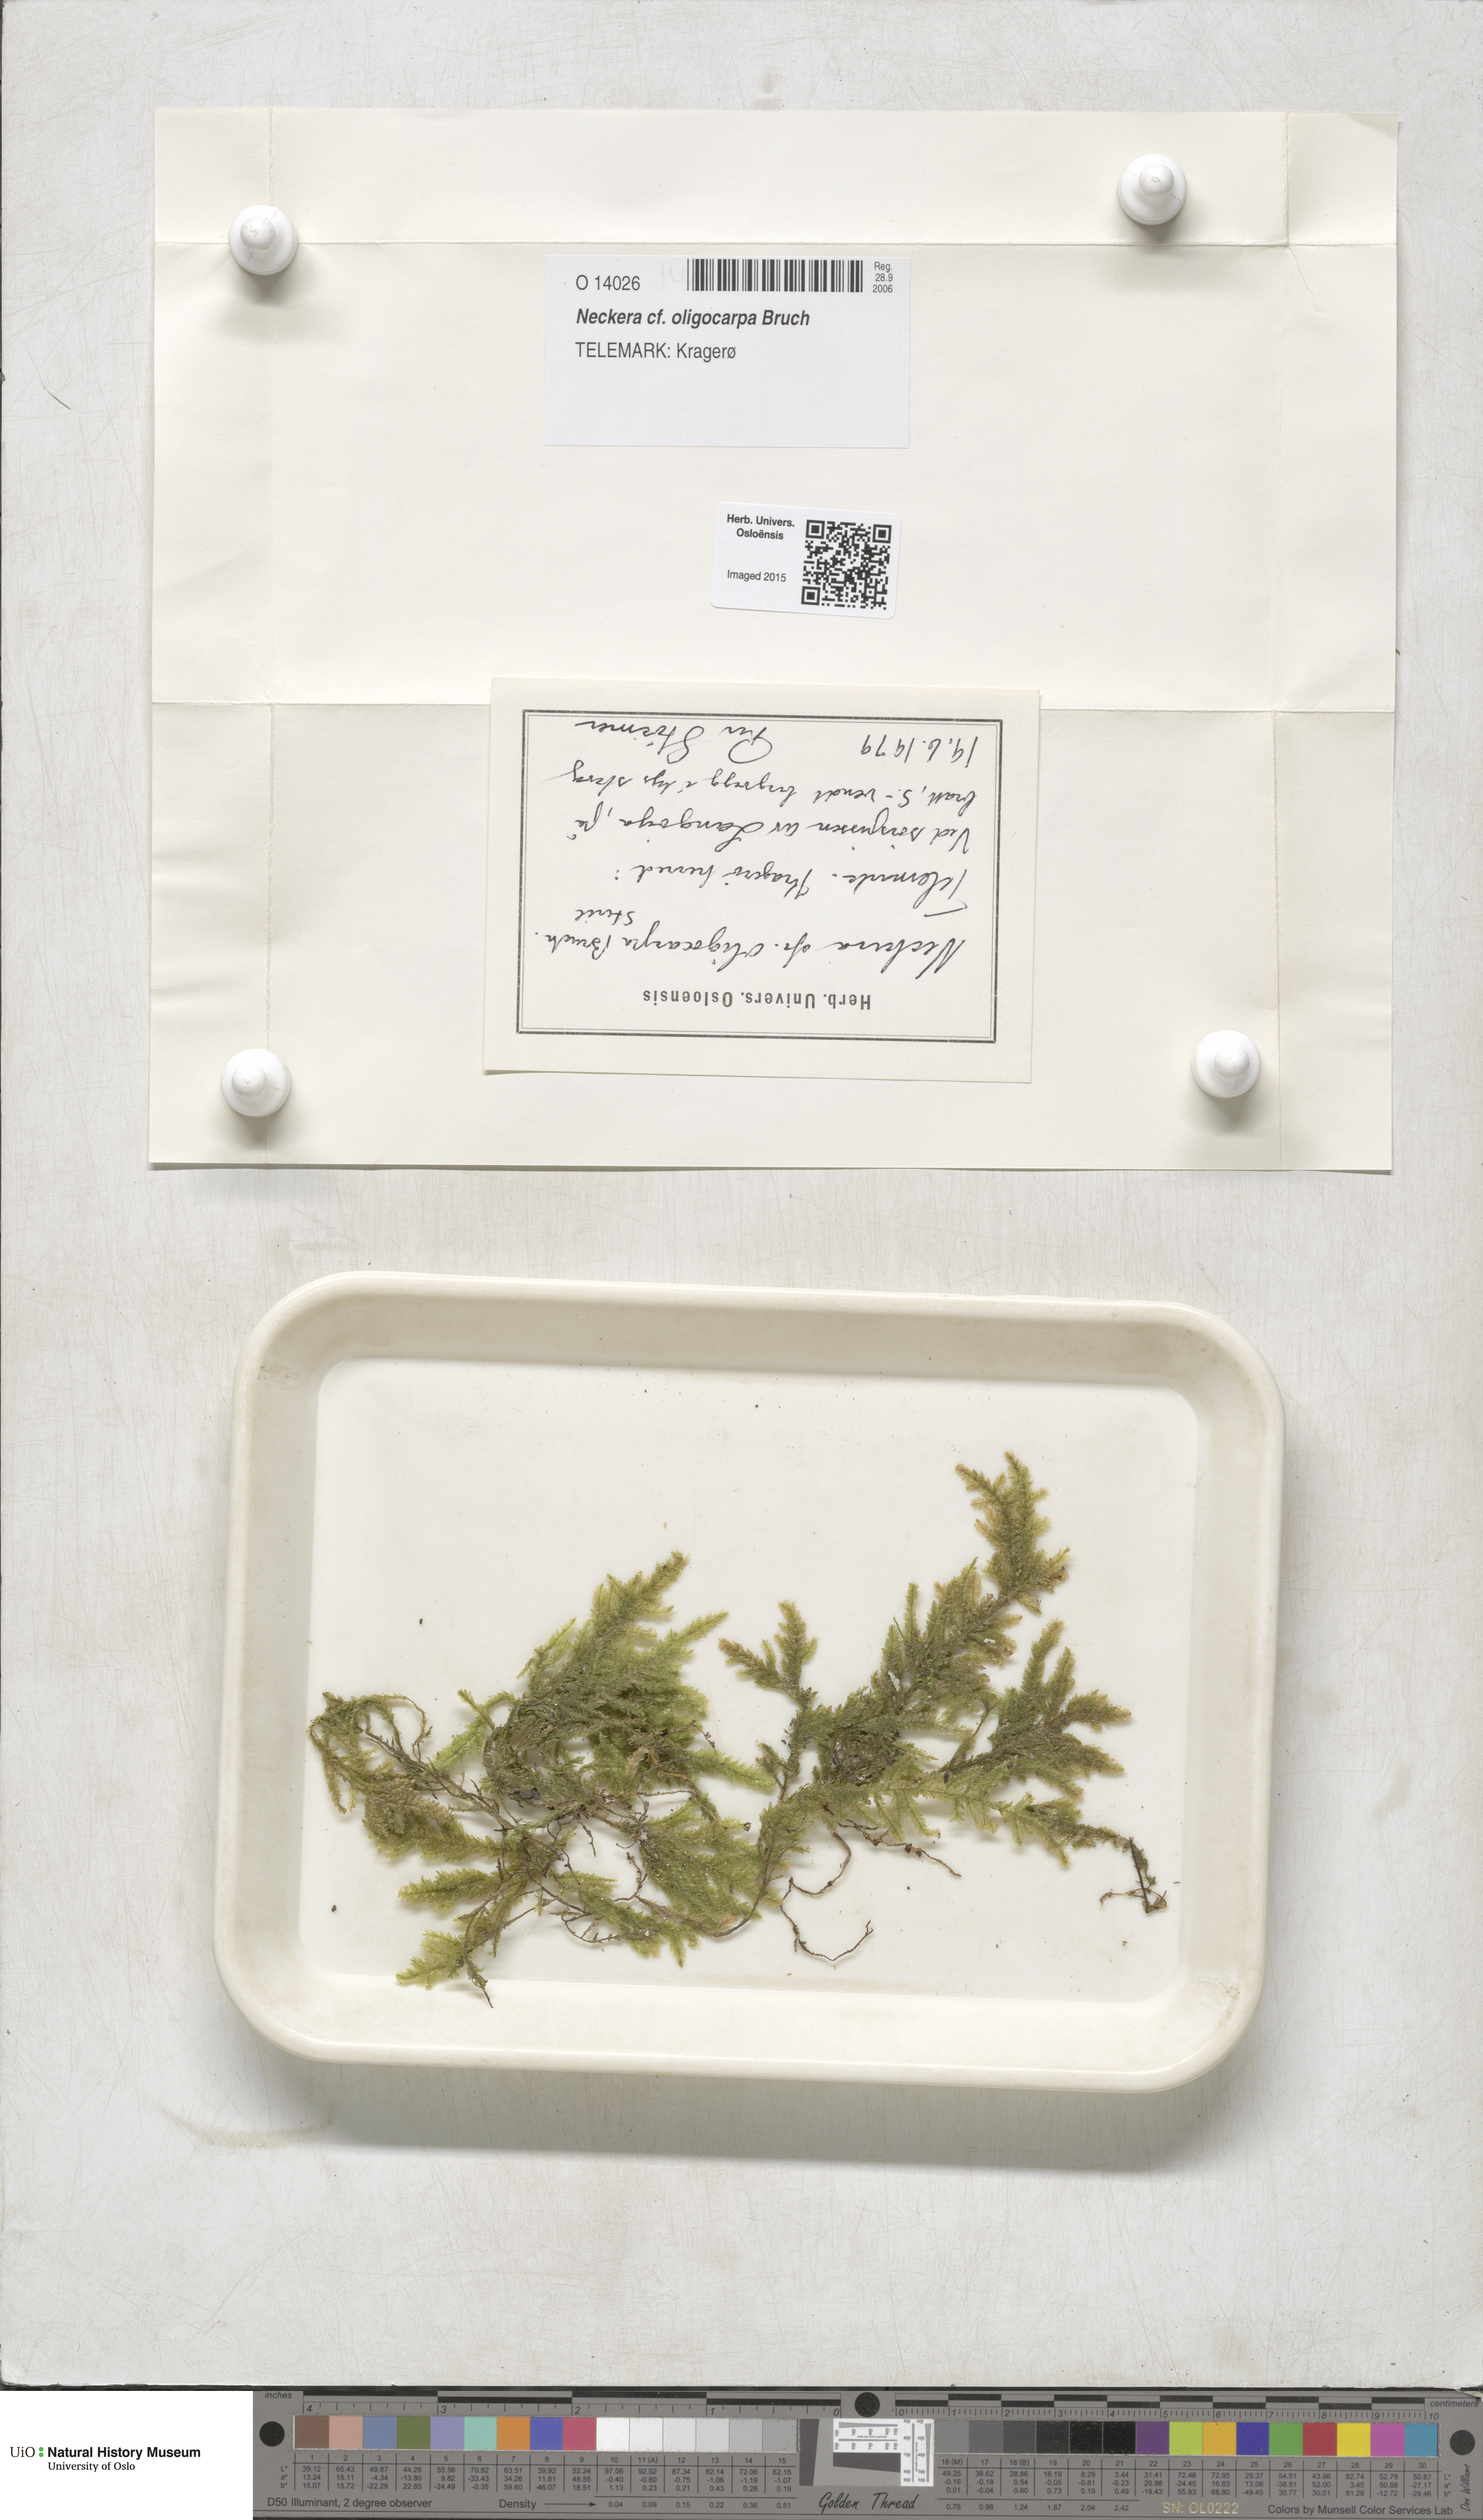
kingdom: Plantae
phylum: Bryophyta
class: Bryopsida
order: Hypnales
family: Neckeraceae
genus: Neckera
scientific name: Neckera oligocarpa
